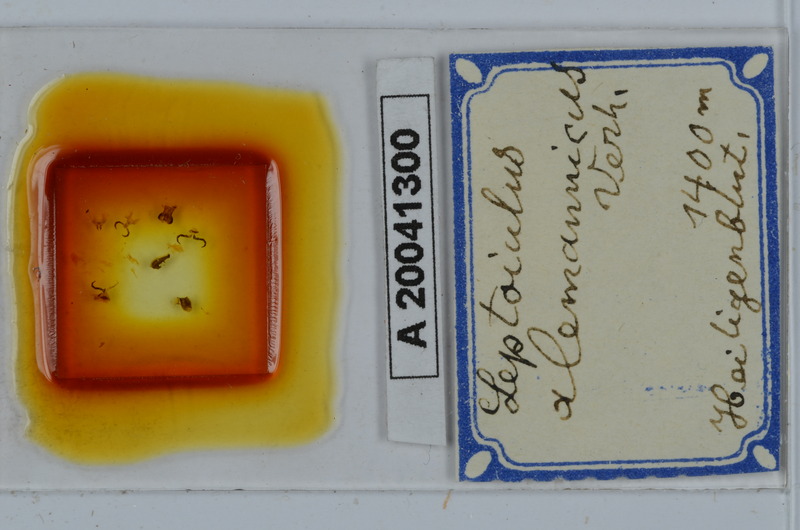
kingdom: Animalia
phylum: Arthropoda
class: Diplopoda
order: Julida
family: Julidae
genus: Leptoiulus
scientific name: Leptoiulus alemannicus
